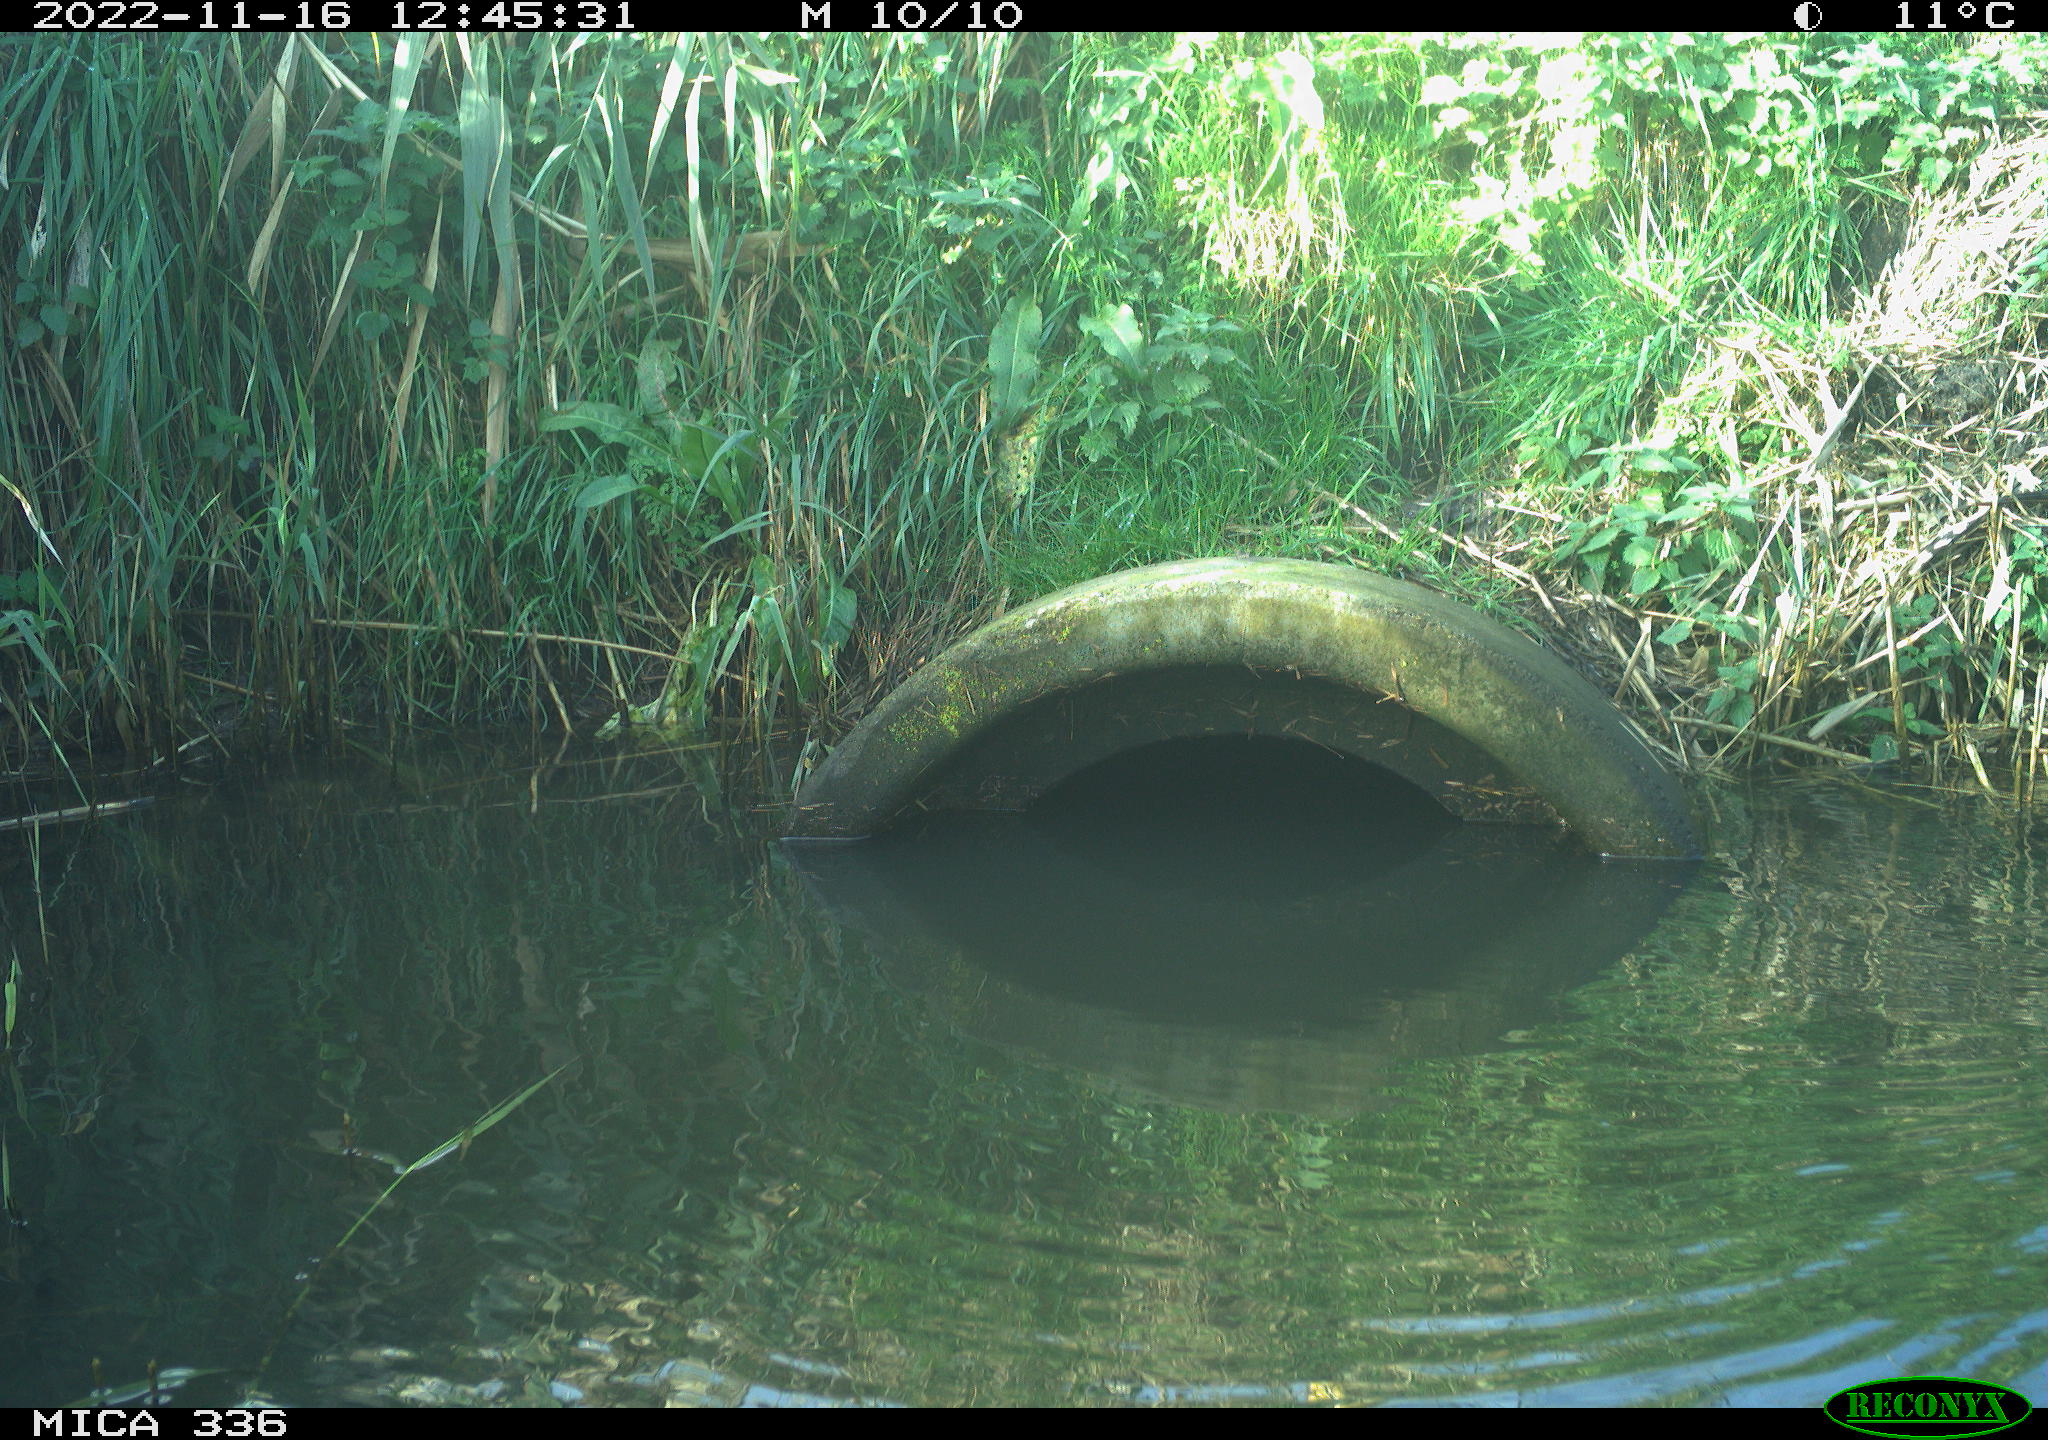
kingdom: Animalia
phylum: Chordata
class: Aves
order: Gruiformes
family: Rallidae
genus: Rallus
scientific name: Rallus aquaticus
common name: Water rail
